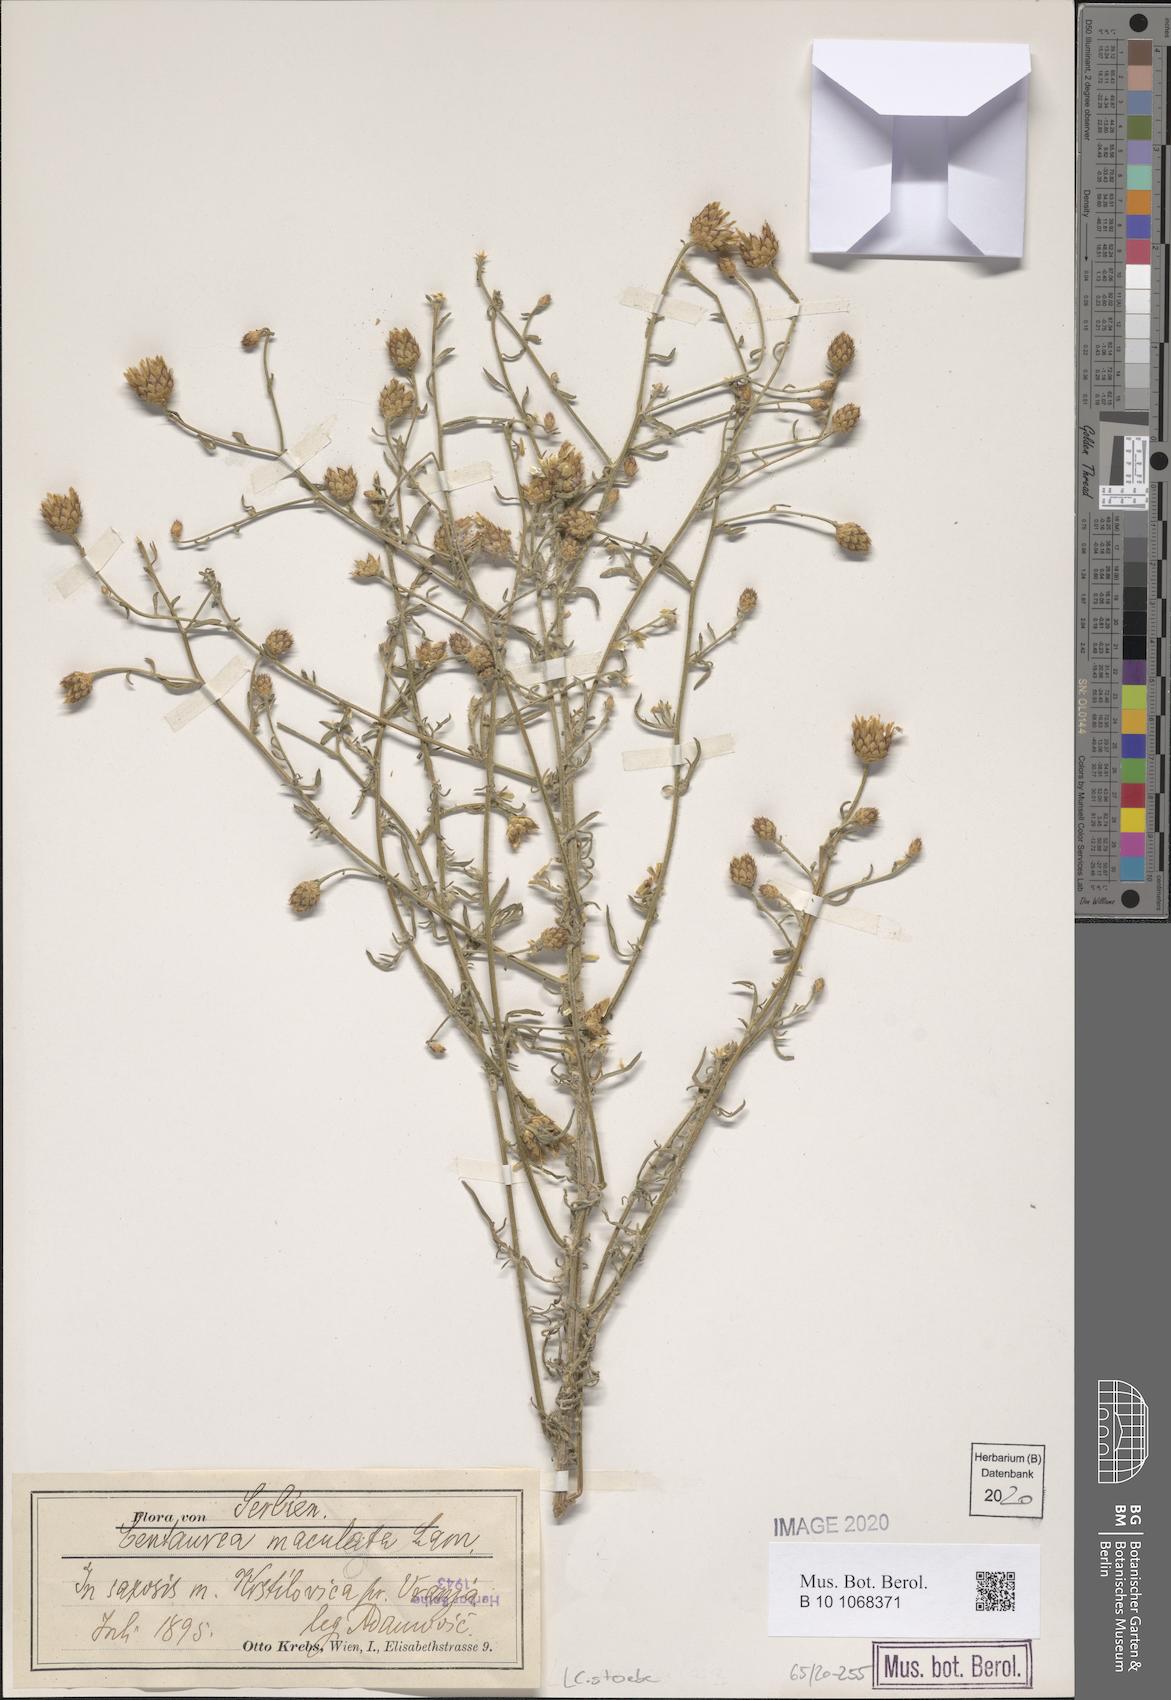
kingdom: Plantae
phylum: Tracheophyta
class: Magnoliopsida
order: Asterales
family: Asteraceae
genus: Centaurea
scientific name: Centaurea stoebe
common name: Spotted knapweed
